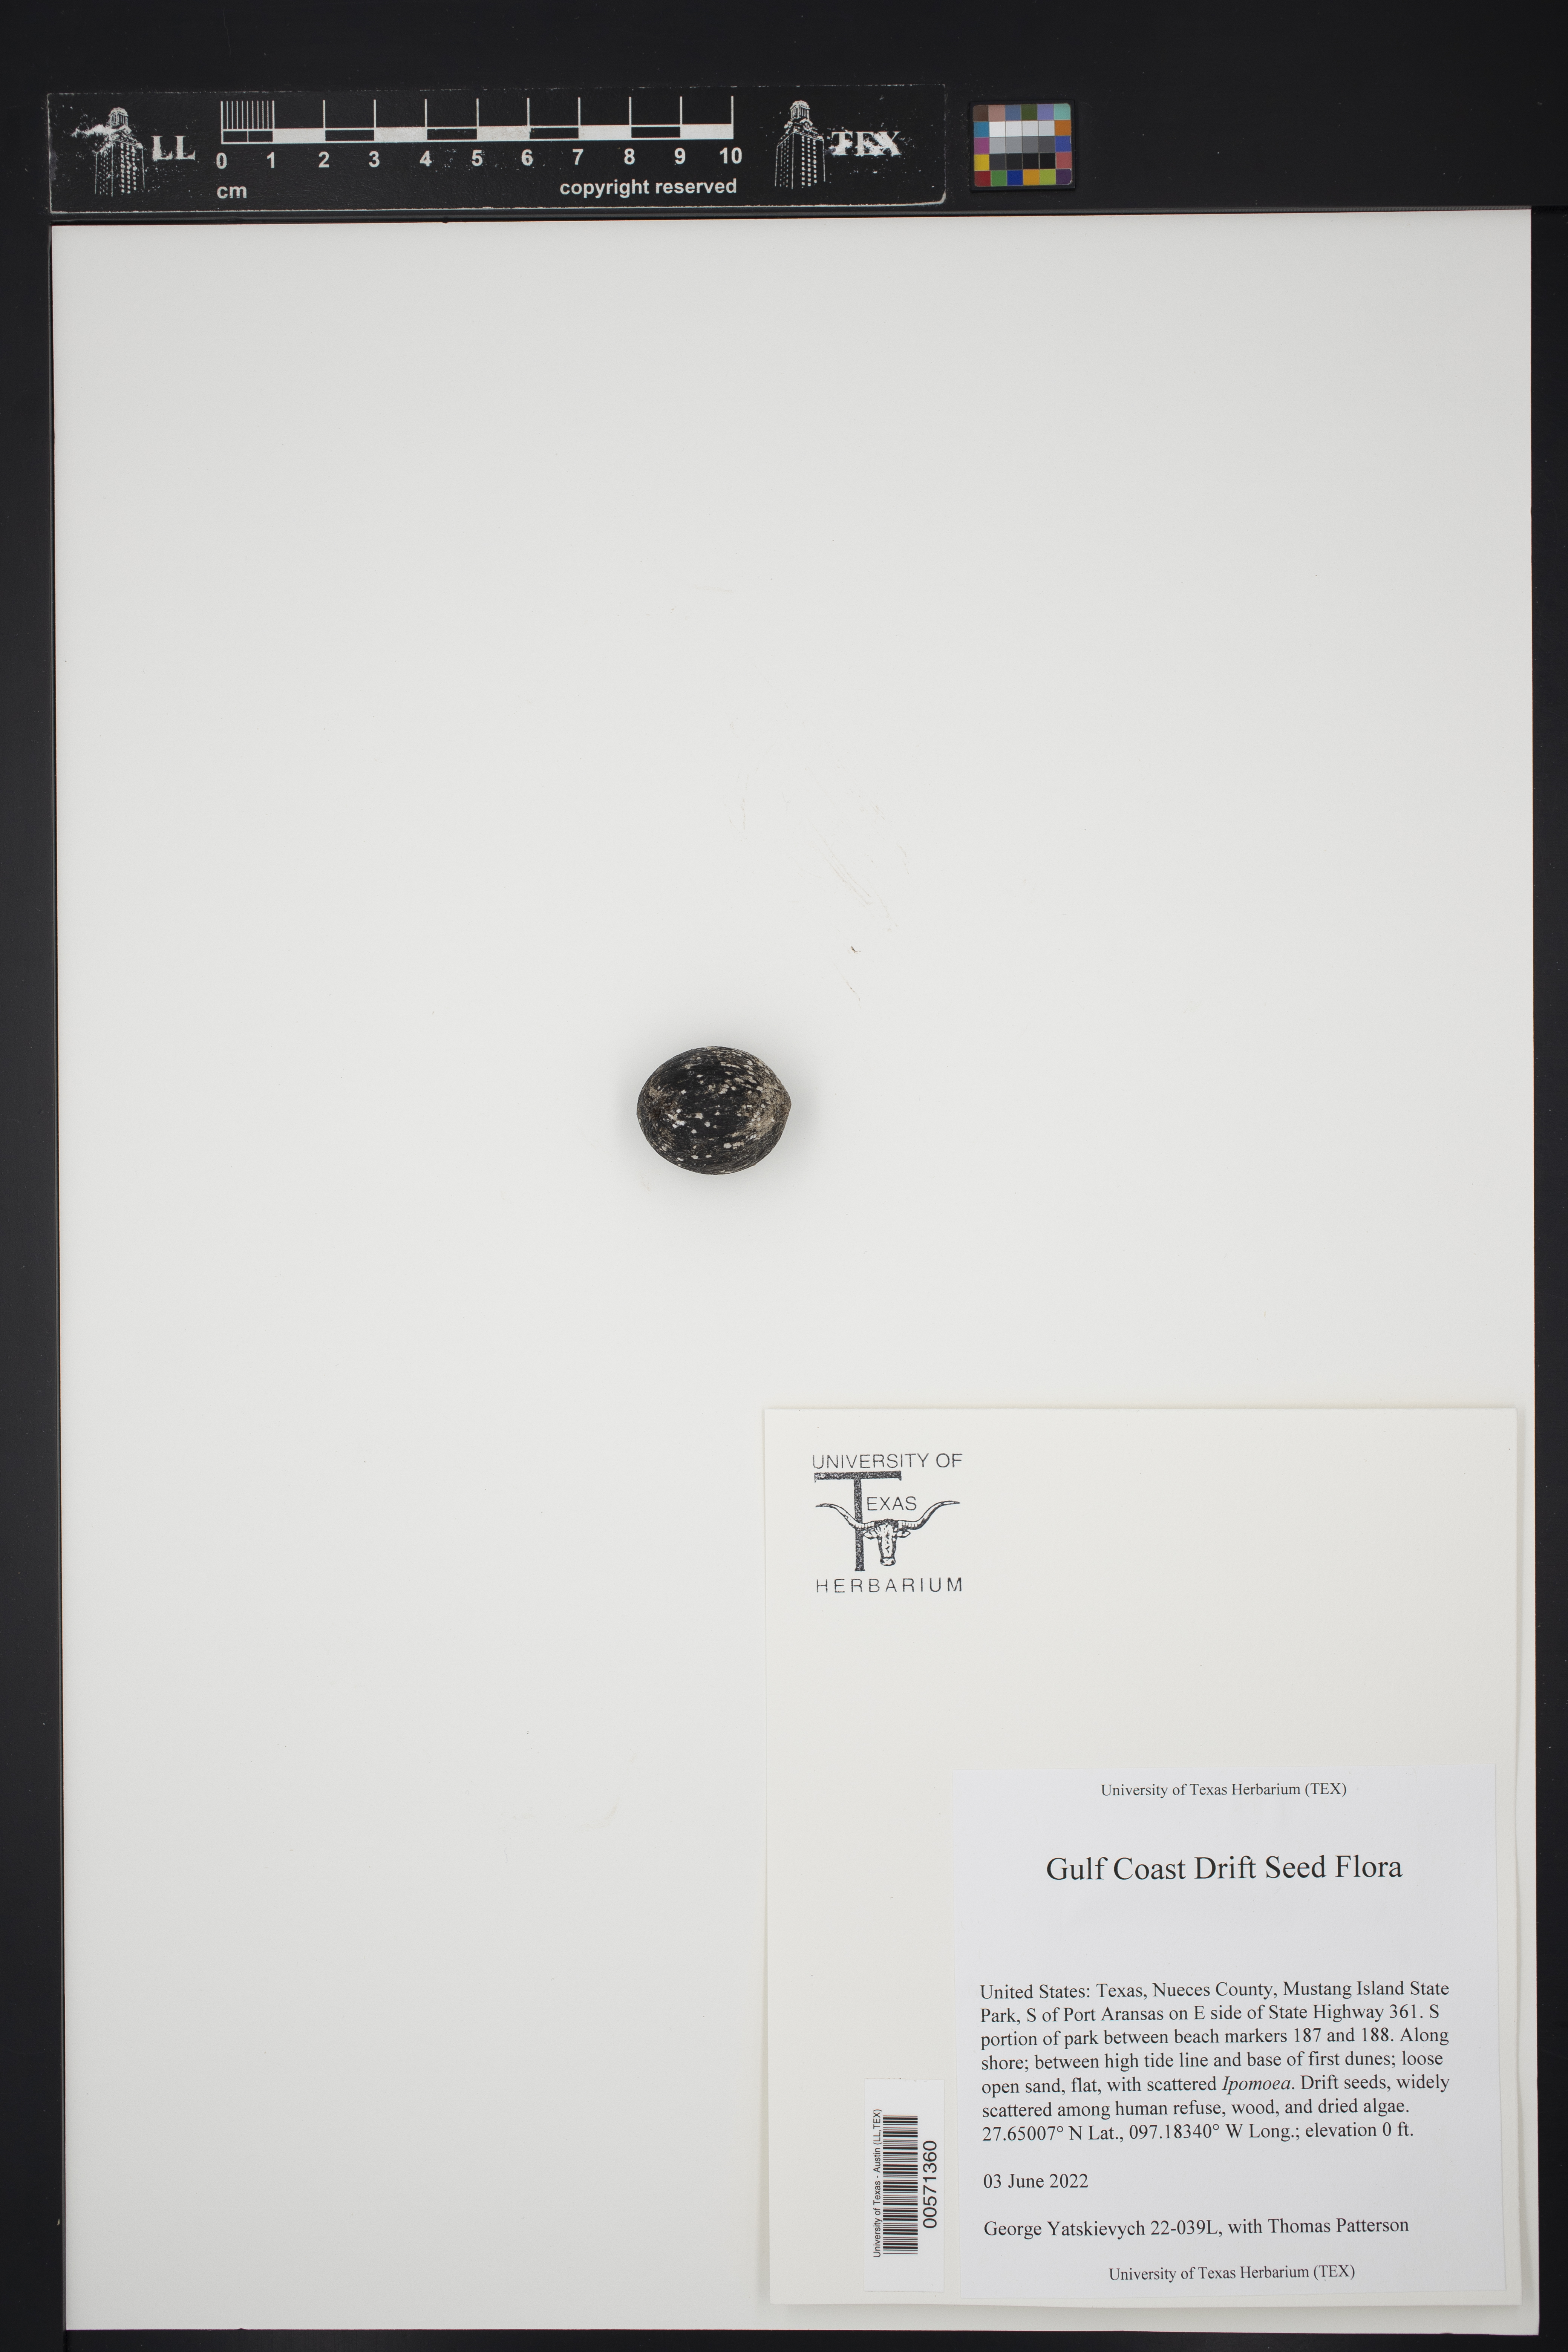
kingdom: Plantae
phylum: Tracheophyta
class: Liliopsida
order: Arecales
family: Arecaceae
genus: Acrocomia
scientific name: Acrocomia aculeata
